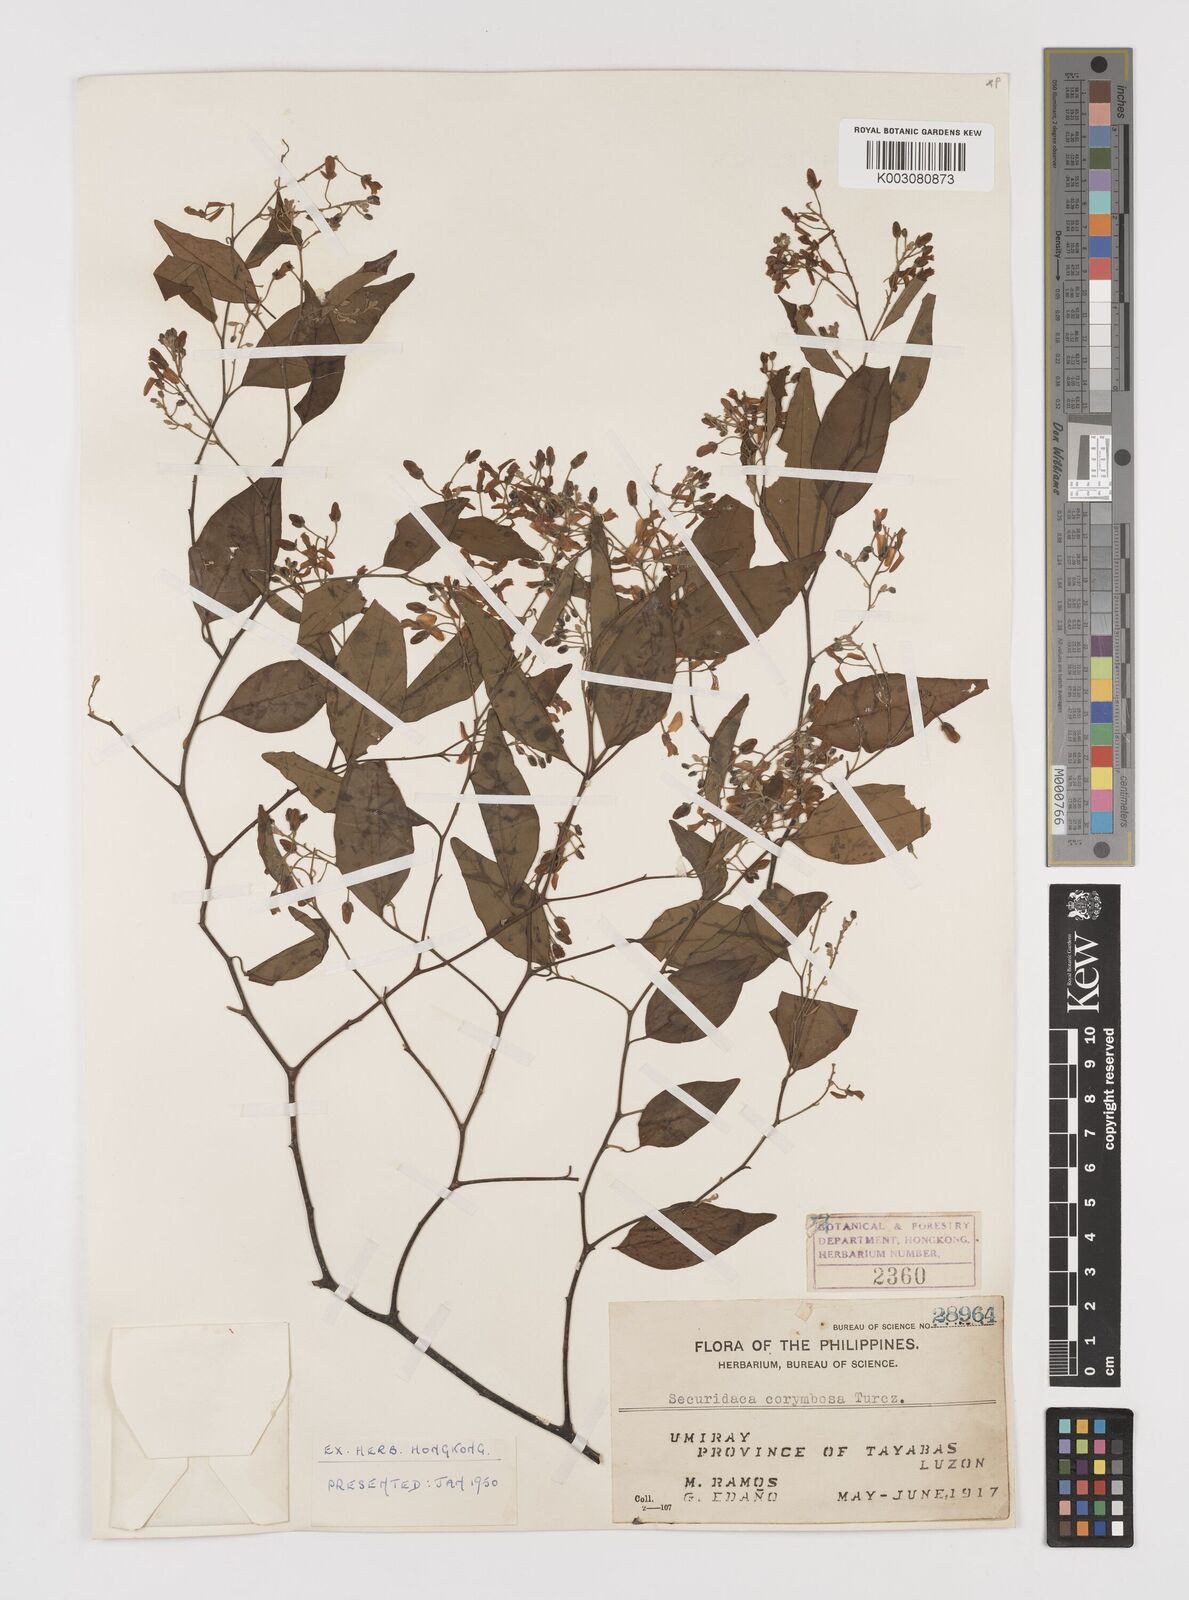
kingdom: Plantae
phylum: Tracheophyta
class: Magnoliopsida
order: Fabales
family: Polygalaceae
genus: Securidaca
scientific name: Securidaca inappendiculata
